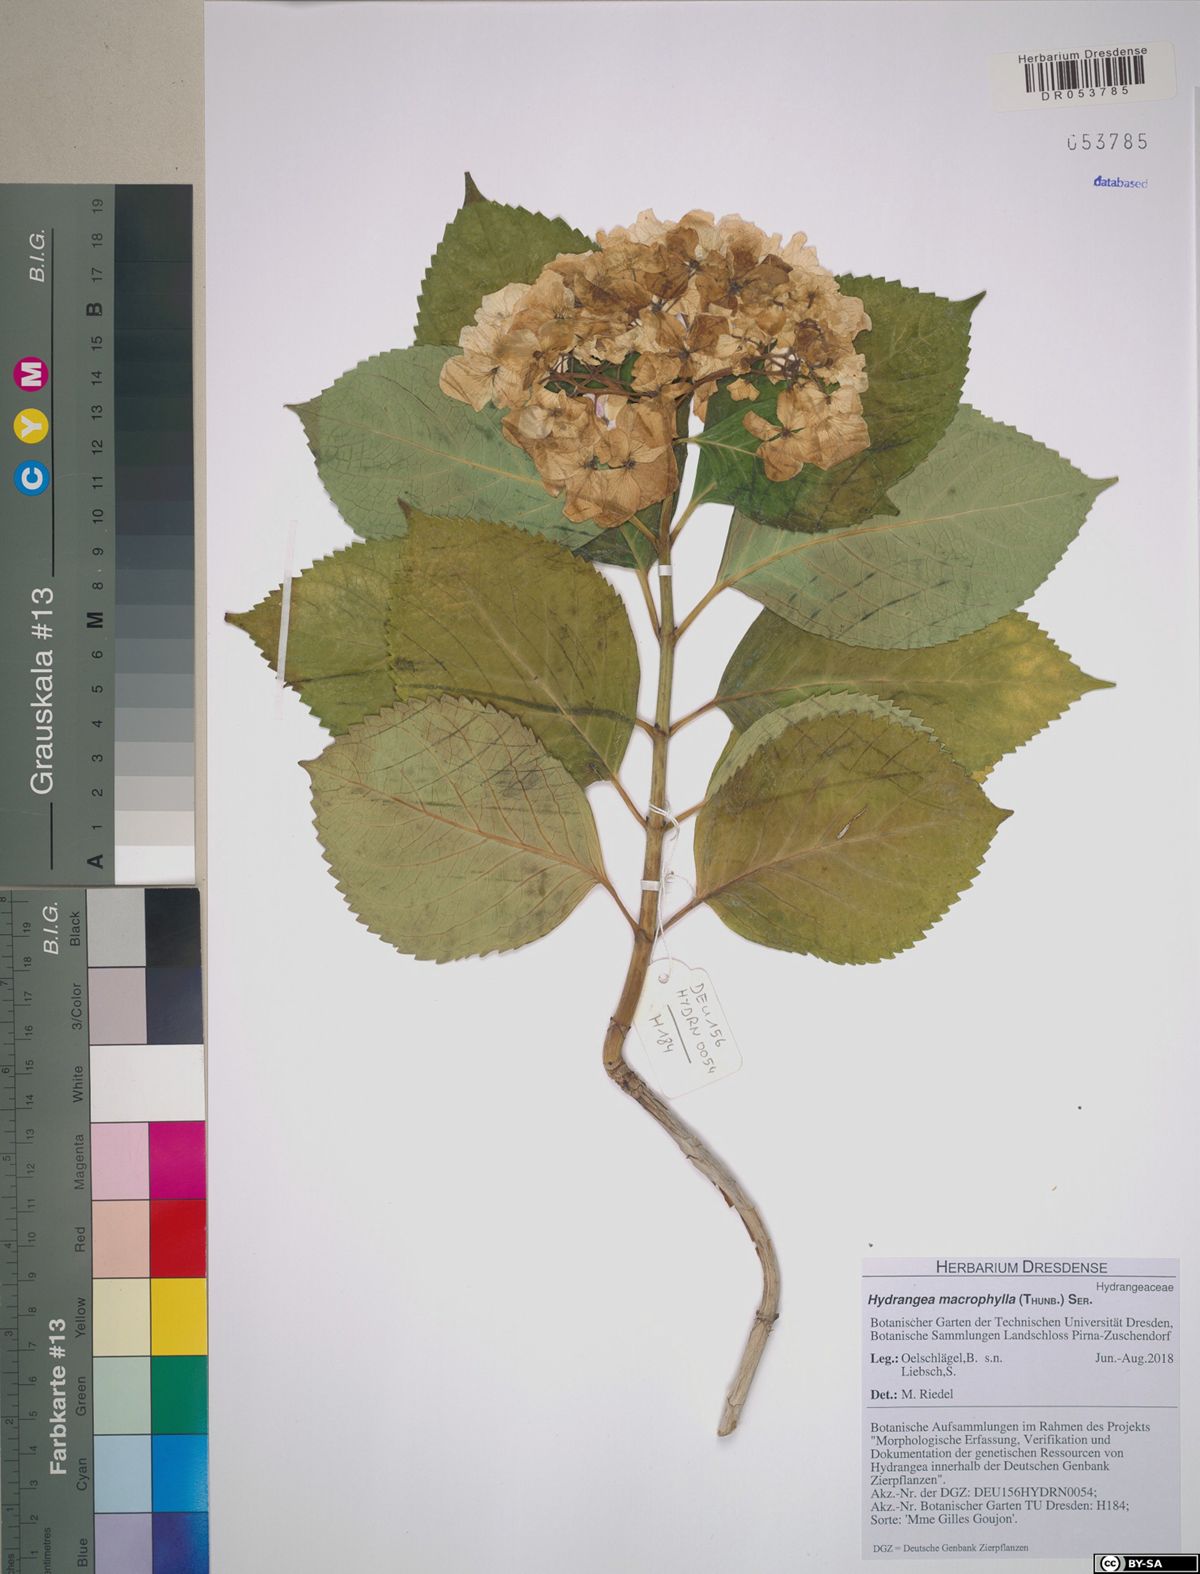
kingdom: Plantae
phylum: Tracheophyta
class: Magnoliopsida
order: Cornales
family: Hydrangeaceae
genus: Hydrangea
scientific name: Hydrangea macrophylla
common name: Hydrangea
